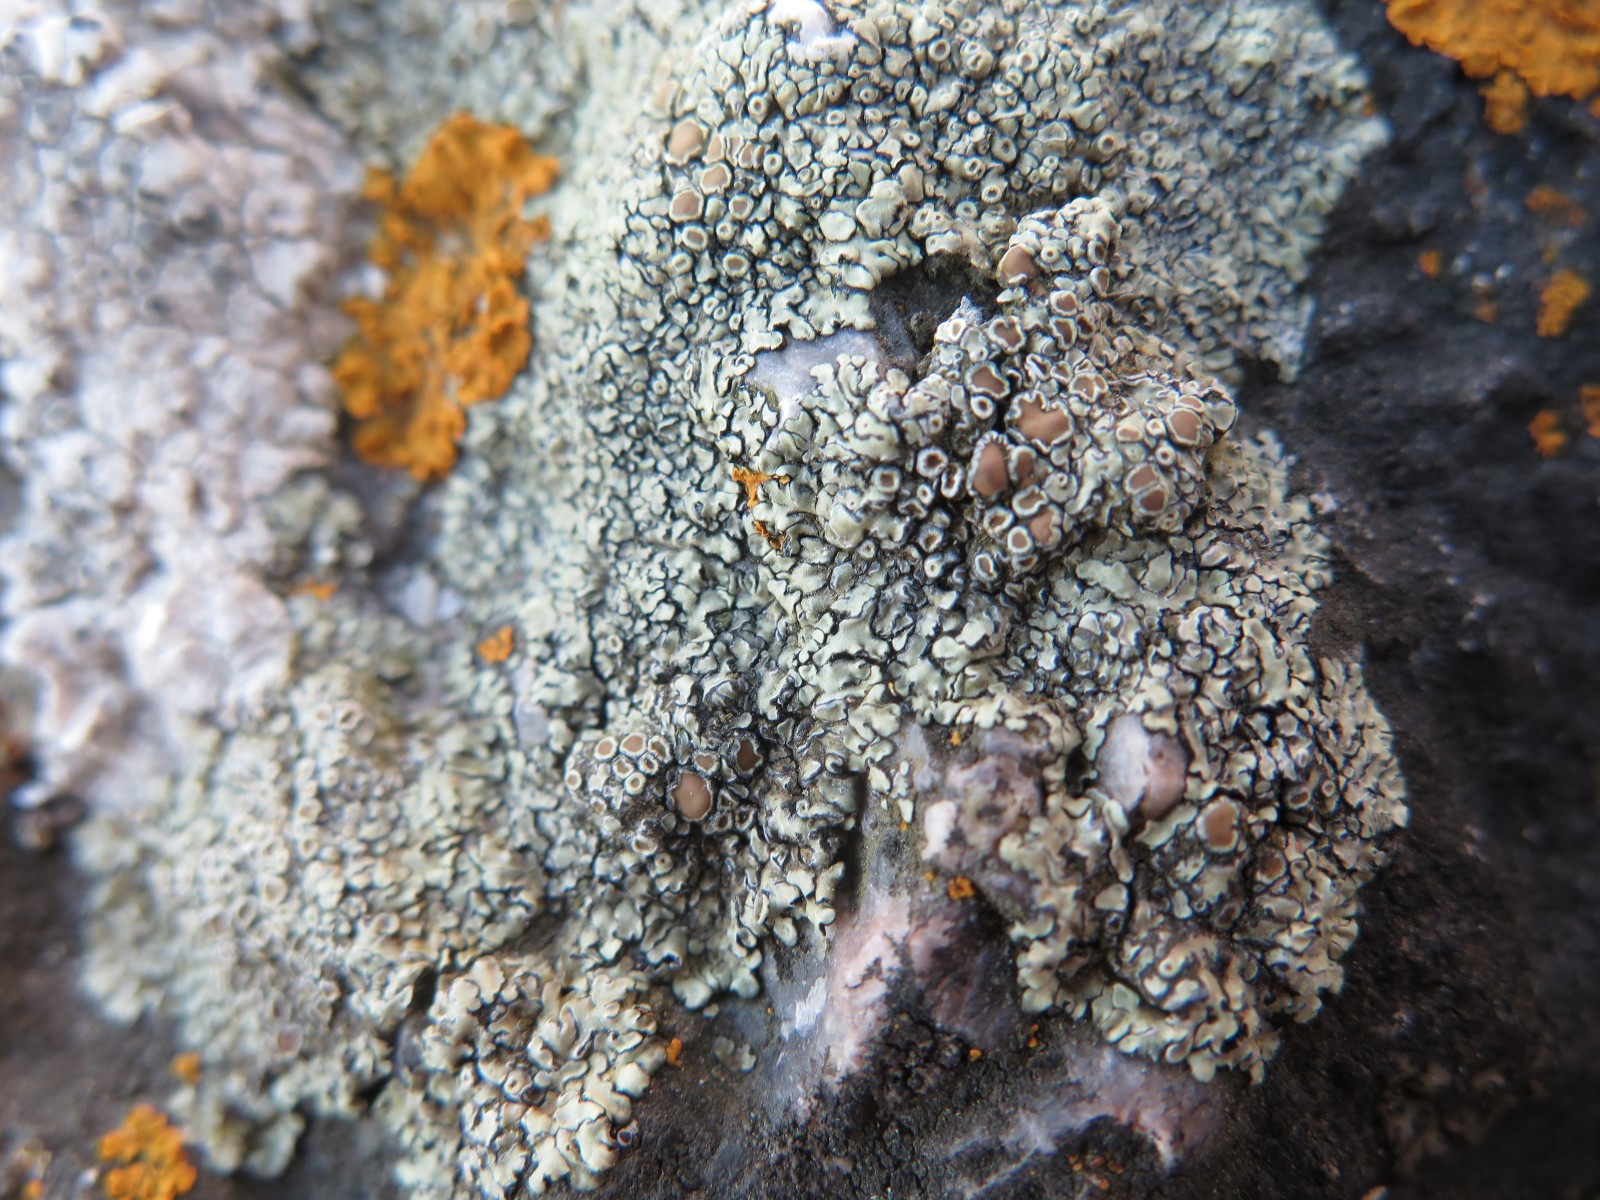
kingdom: Fungi
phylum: Ascomycota
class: Lecanoromycetes
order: Lecanorales
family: Lecanoraceae
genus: Protoparmeliopsis
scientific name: Protoparmeliopsis muralis
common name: randfliget kantskivelav
